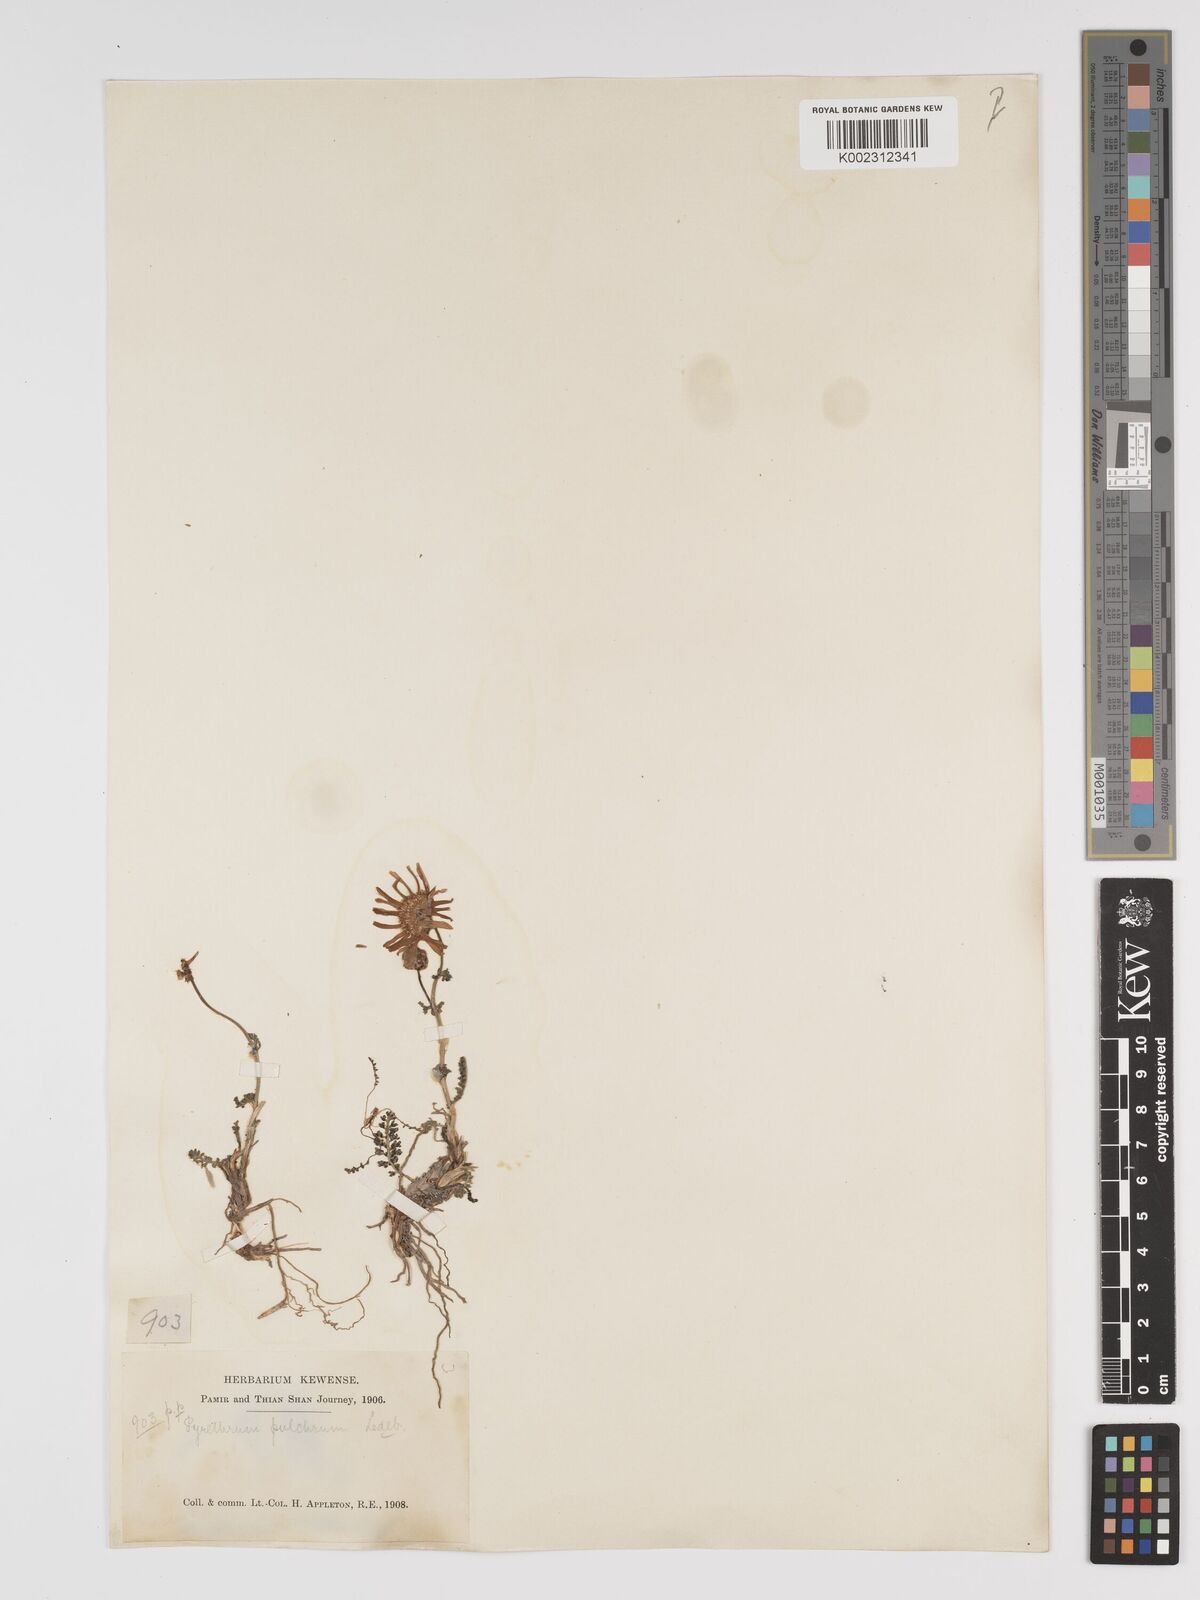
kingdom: Plantae
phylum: Tracheophyta
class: Magnoliopsida
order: Asterales
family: Asteraceae
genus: Tanacetum
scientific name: Tanacetum pulchrum
